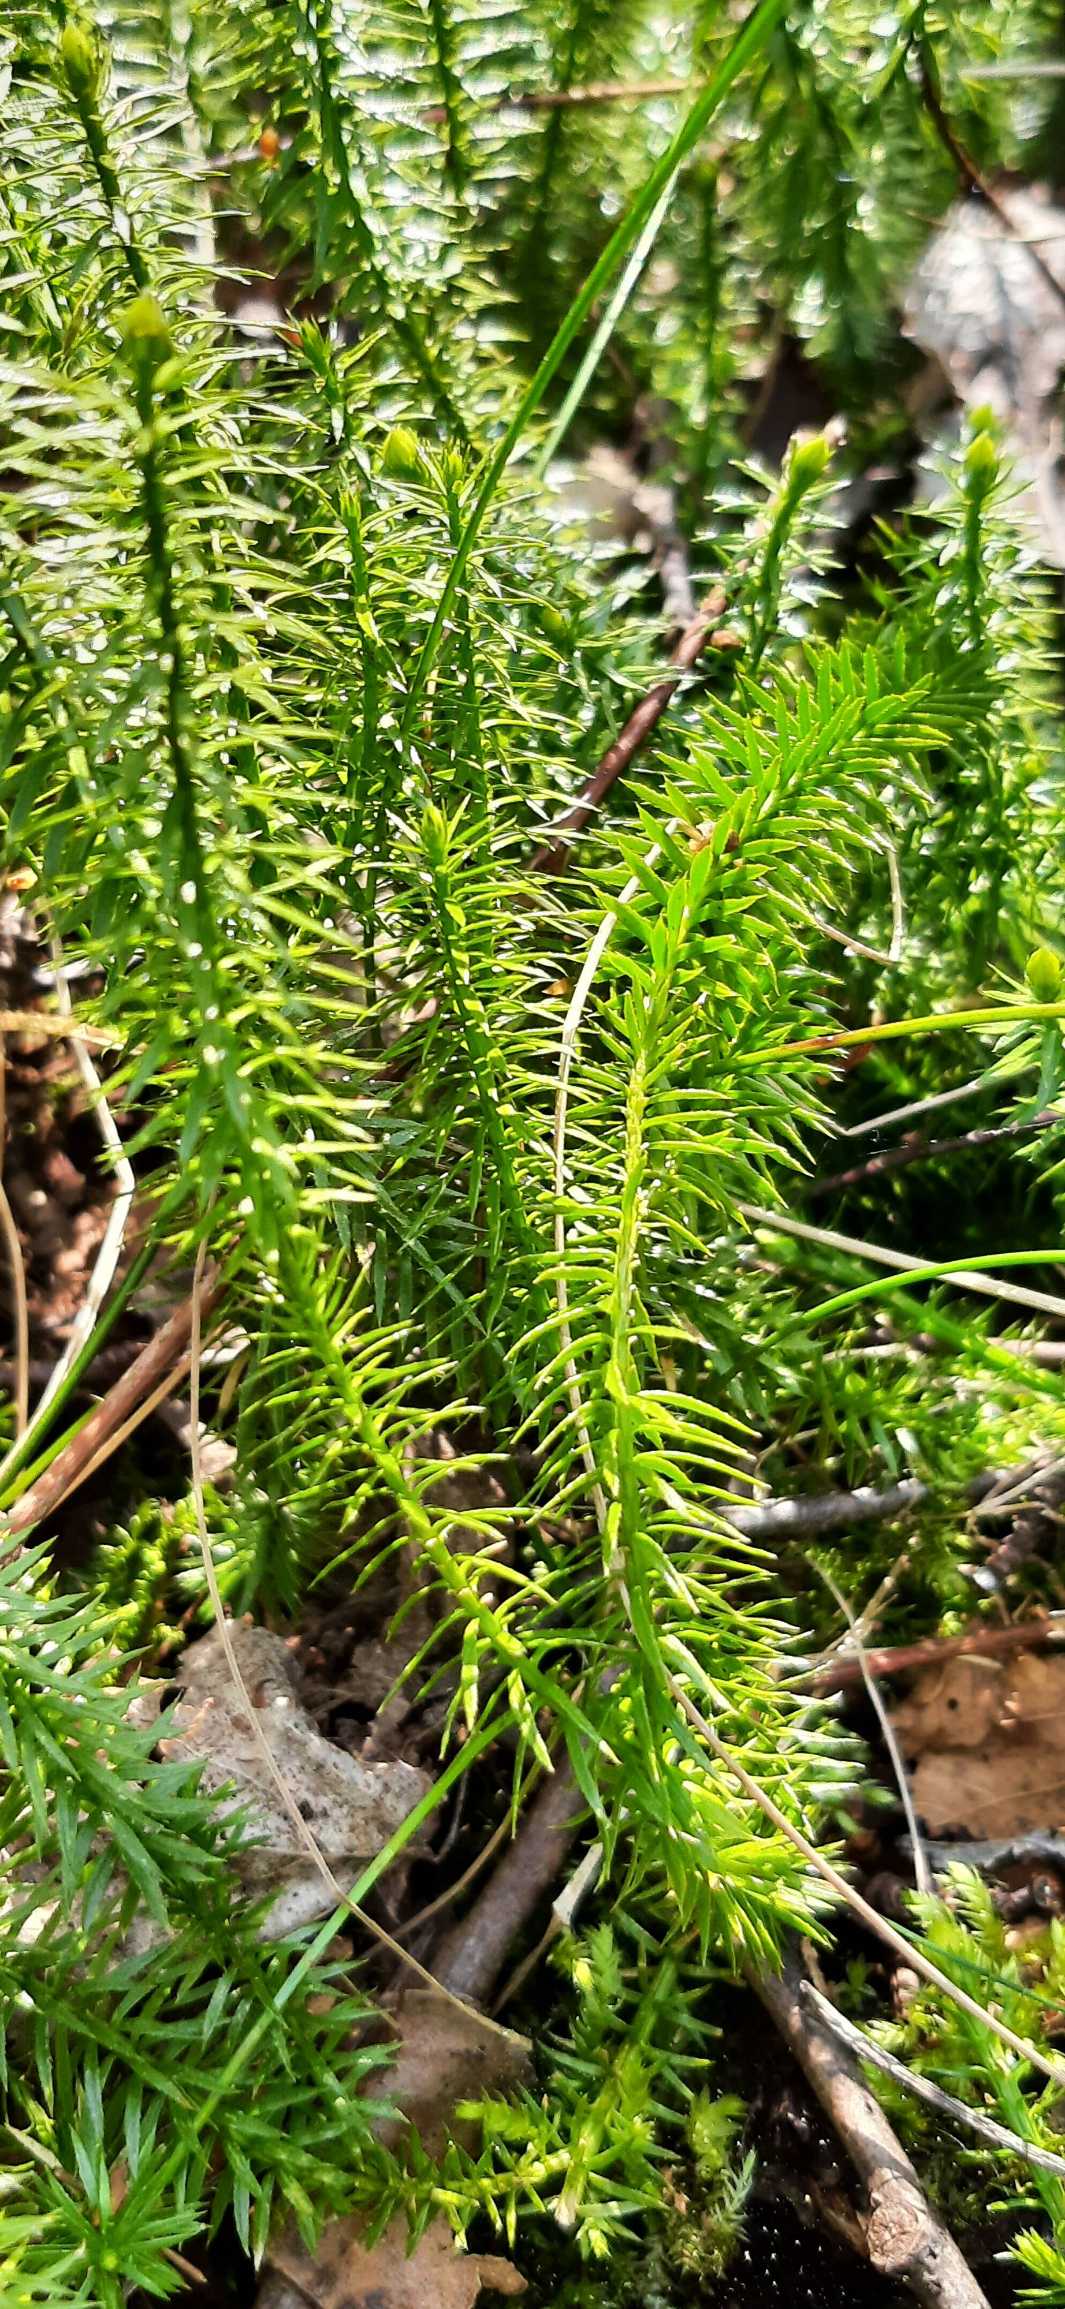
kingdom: Plantae
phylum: Tracheophyta
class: Lycopodiopsida
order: Lycopodiales
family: Lycopodiaceae
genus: Spinulum
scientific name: Spinulum annotinum
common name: Femradet ulvefod
